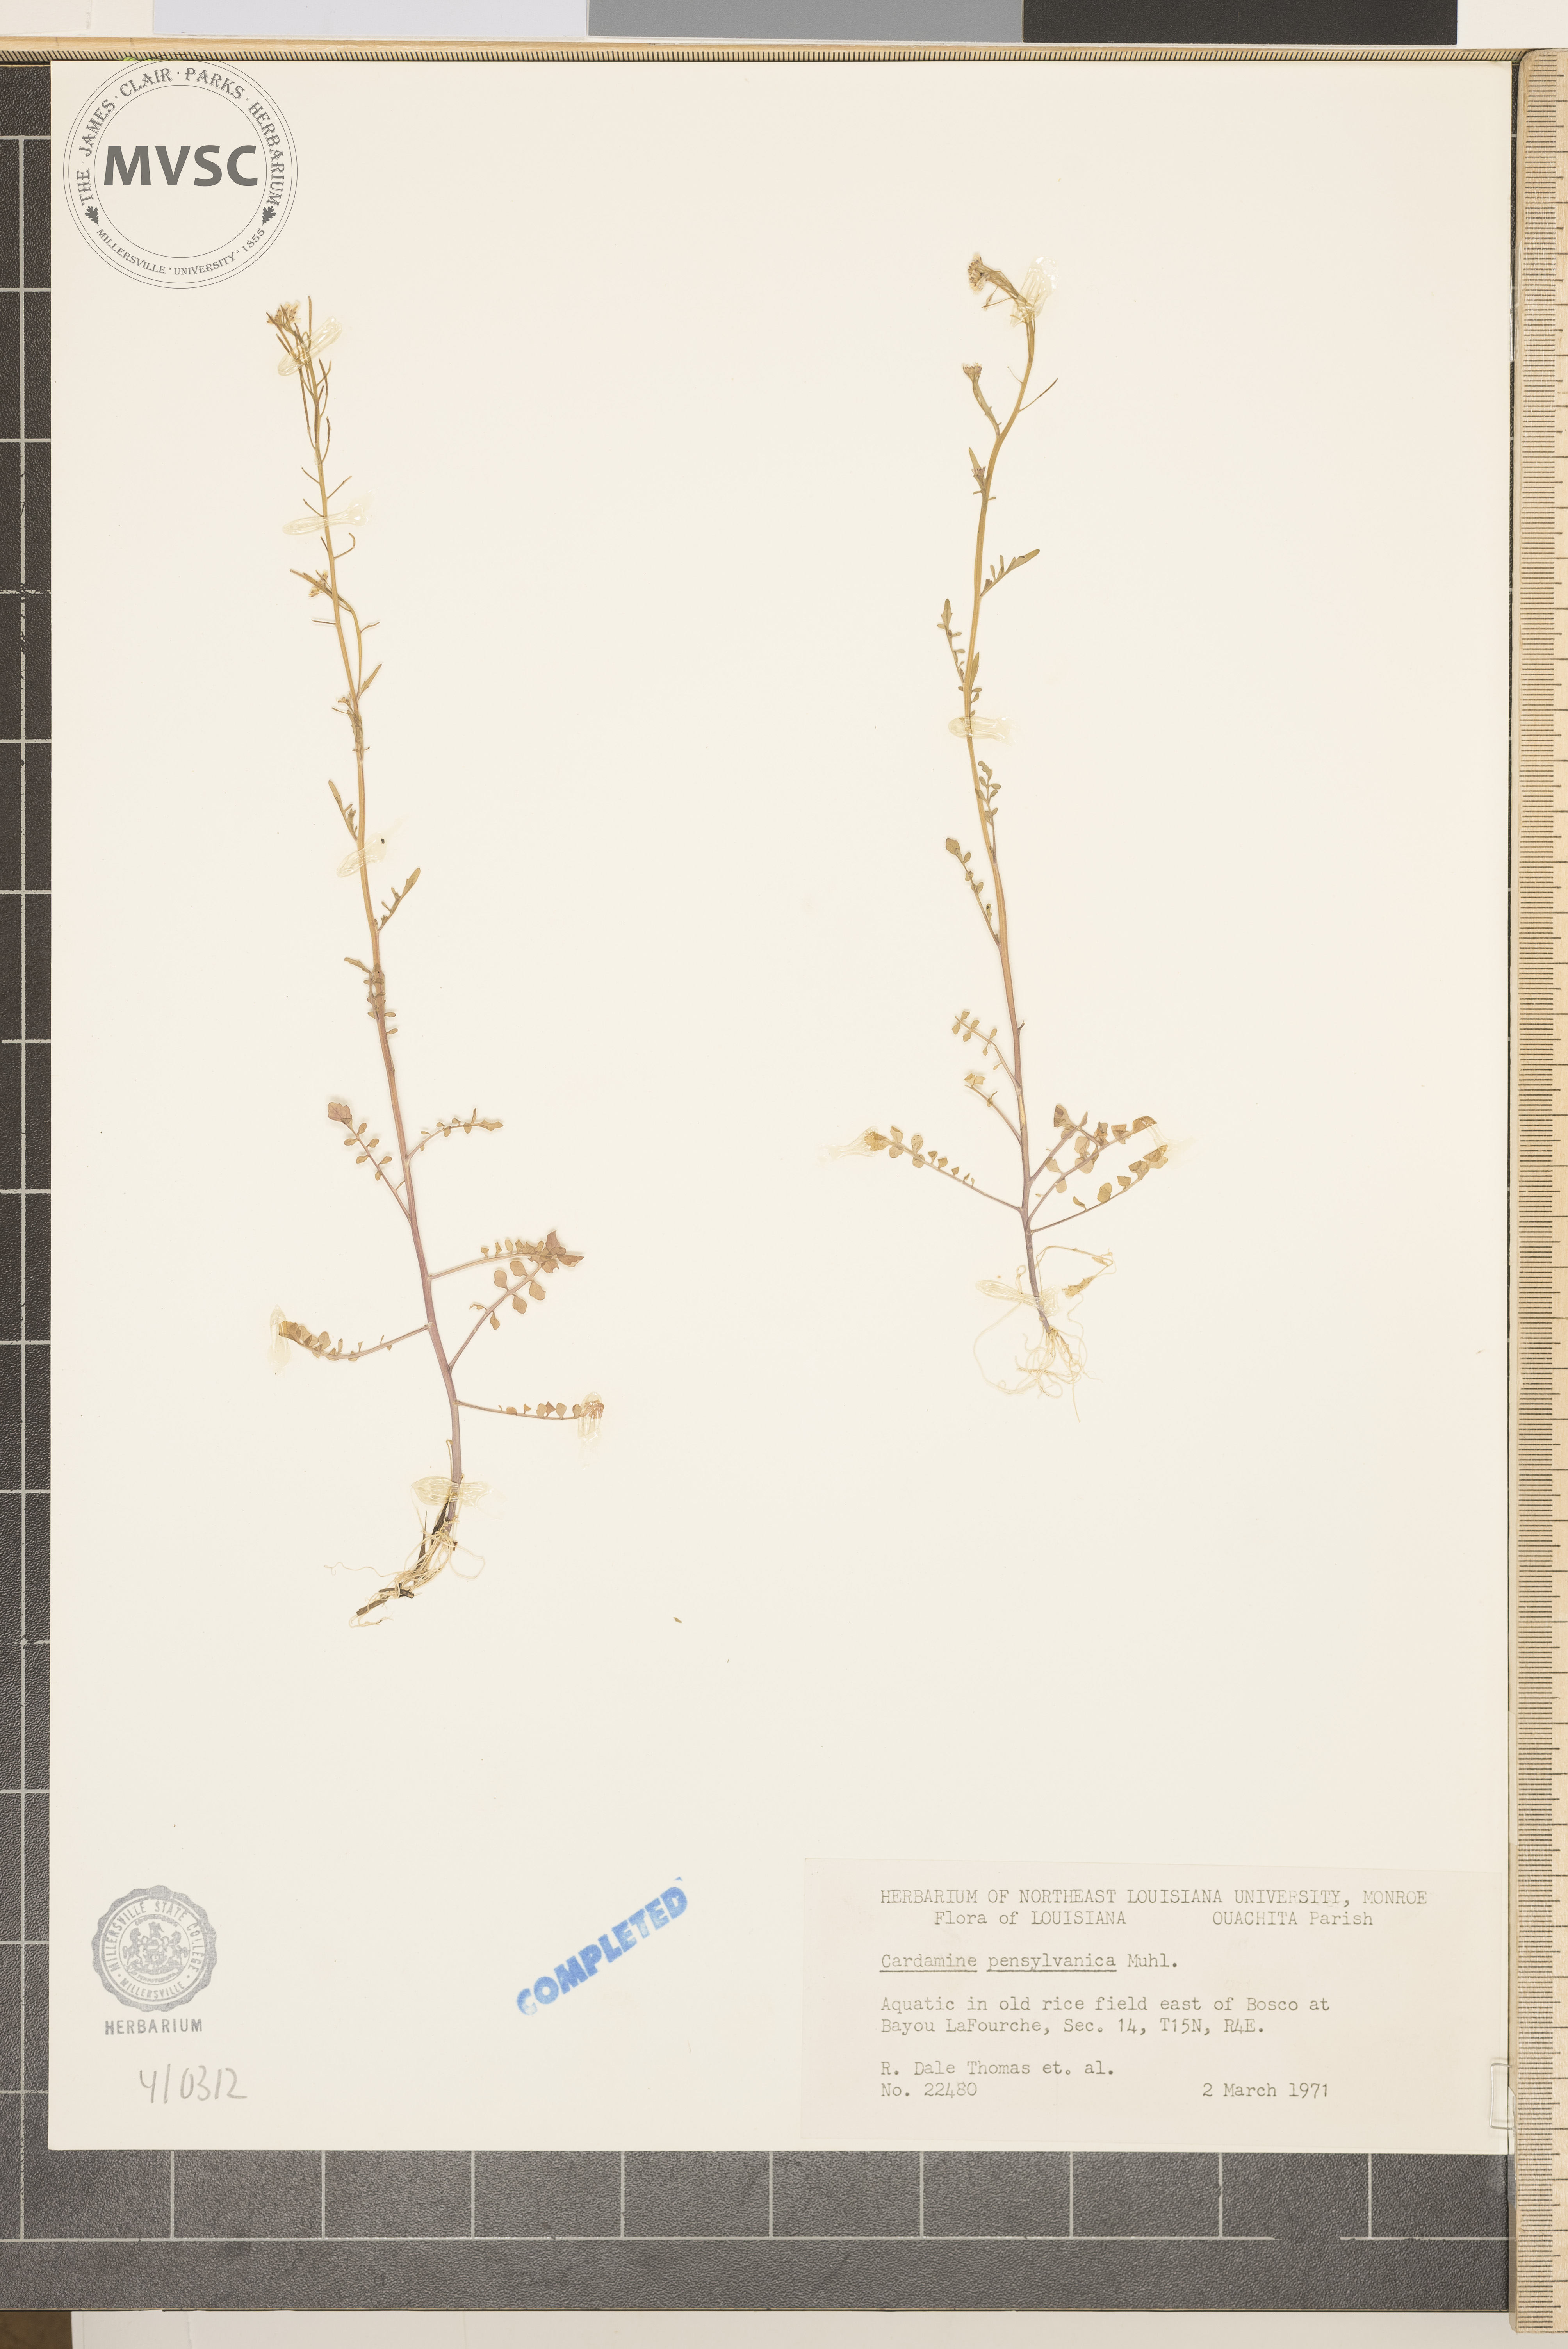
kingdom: Plantae
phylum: Tracheophyta
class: Magnoliopsida
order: Brassicales
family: Brassicaceae
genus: Cardamine
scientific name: Cardamine pensylvanica
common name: Pennsylvania bittercress
